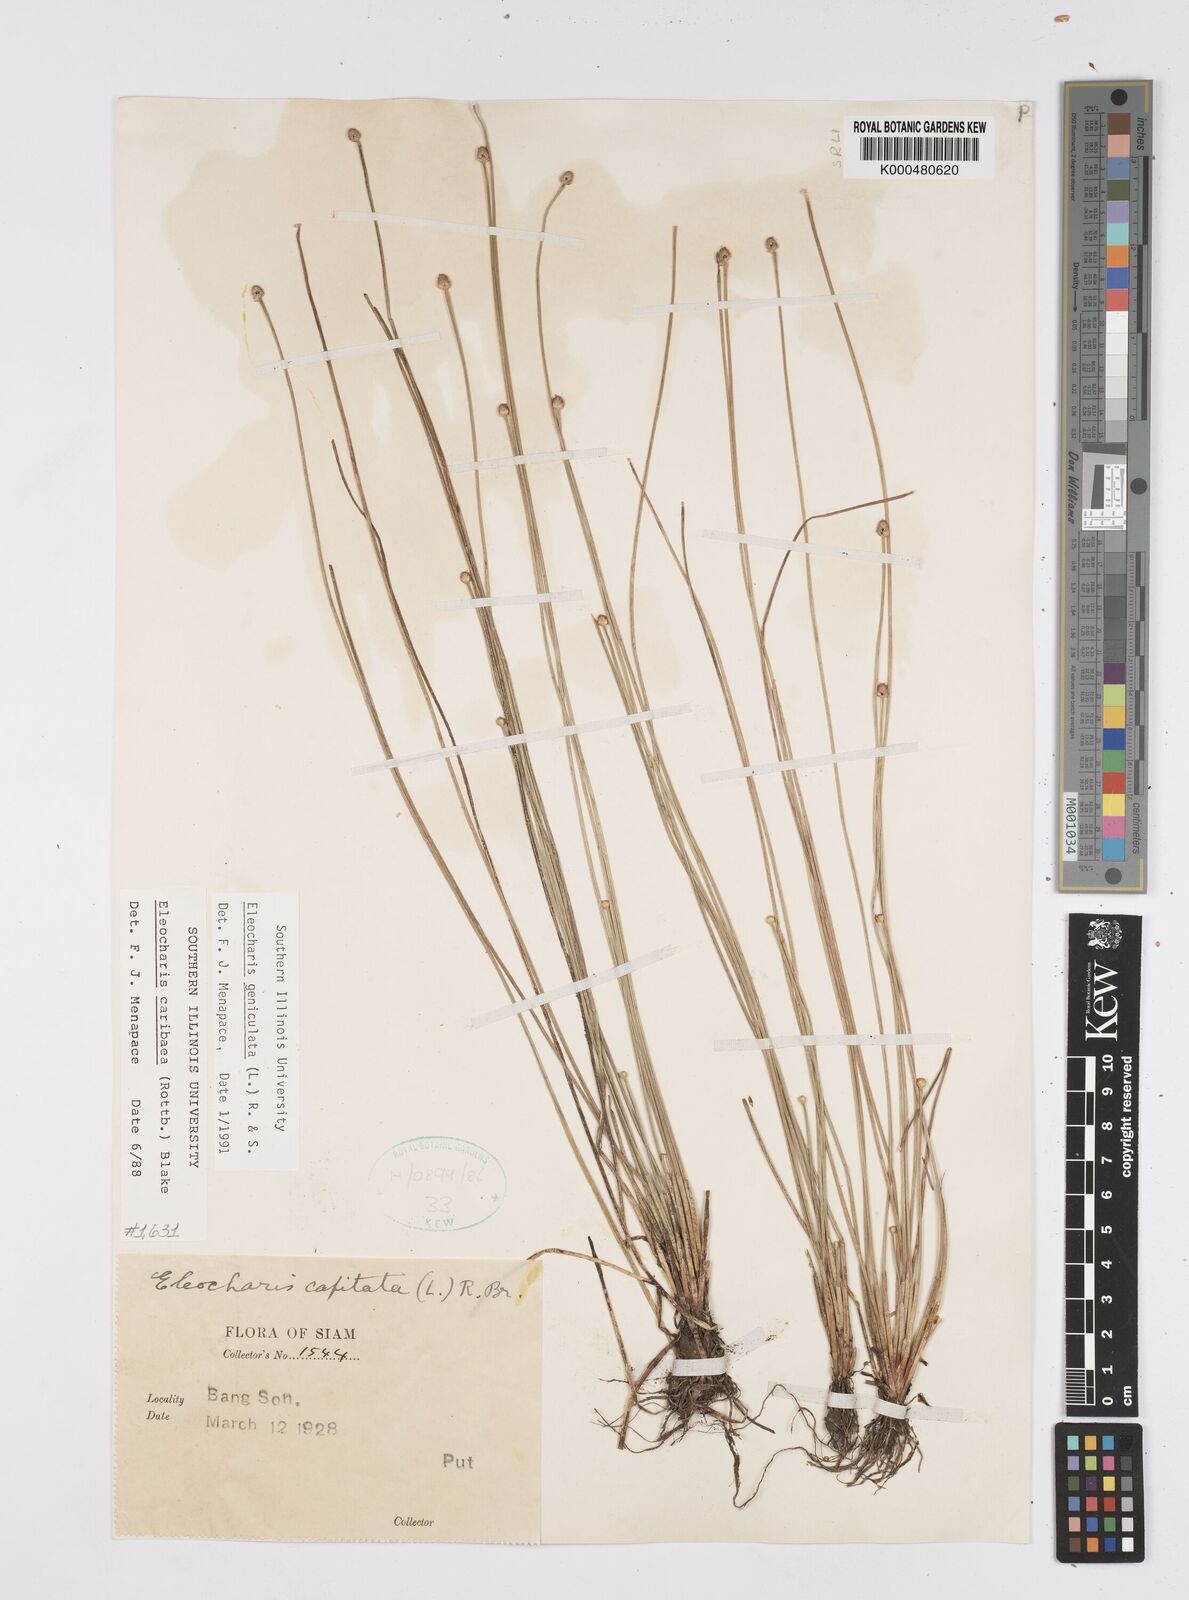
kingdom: Plantae
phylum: Tracheophyta
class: Liliopsida
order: Poales
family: Cyperaceae
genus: Eleocharis
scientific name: Eleocharis geniculata
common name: Canada spikesedge
